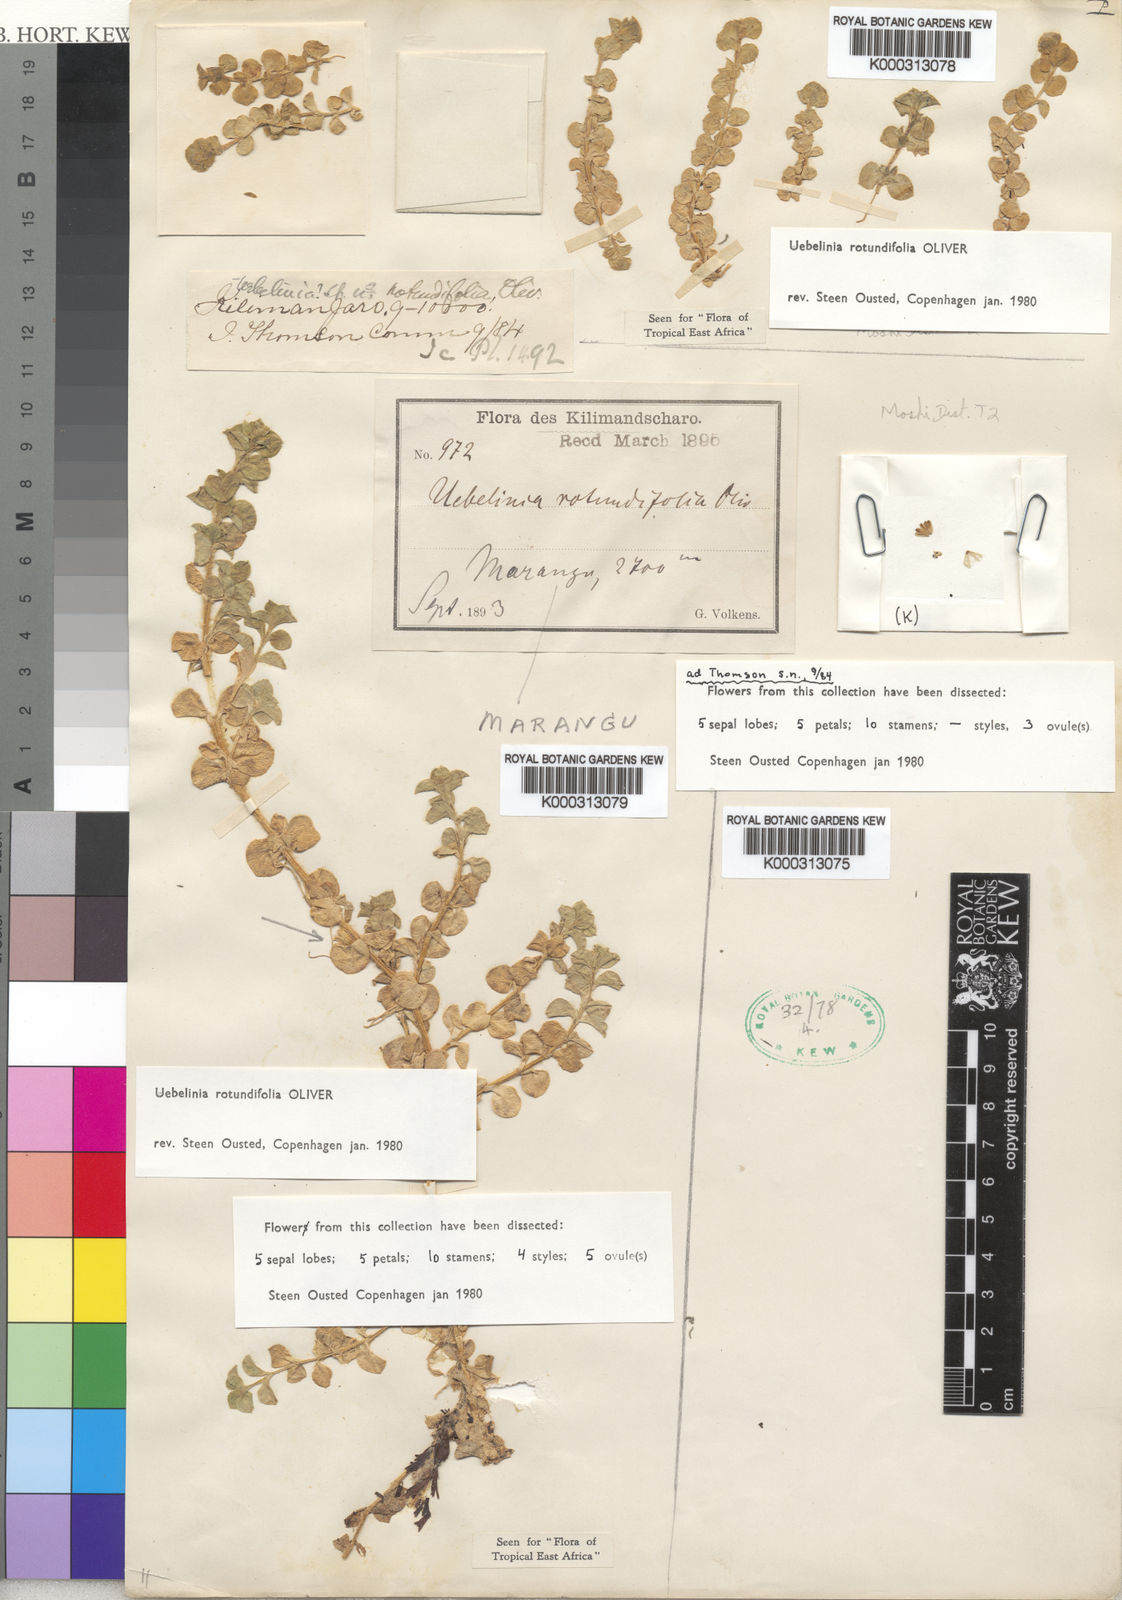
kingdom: Plantae
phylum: Tracheophyta
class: Magnoliopsida
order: Caryophyllales
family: Caryophyllaceae
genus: Silene
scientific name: Silene afromontana
